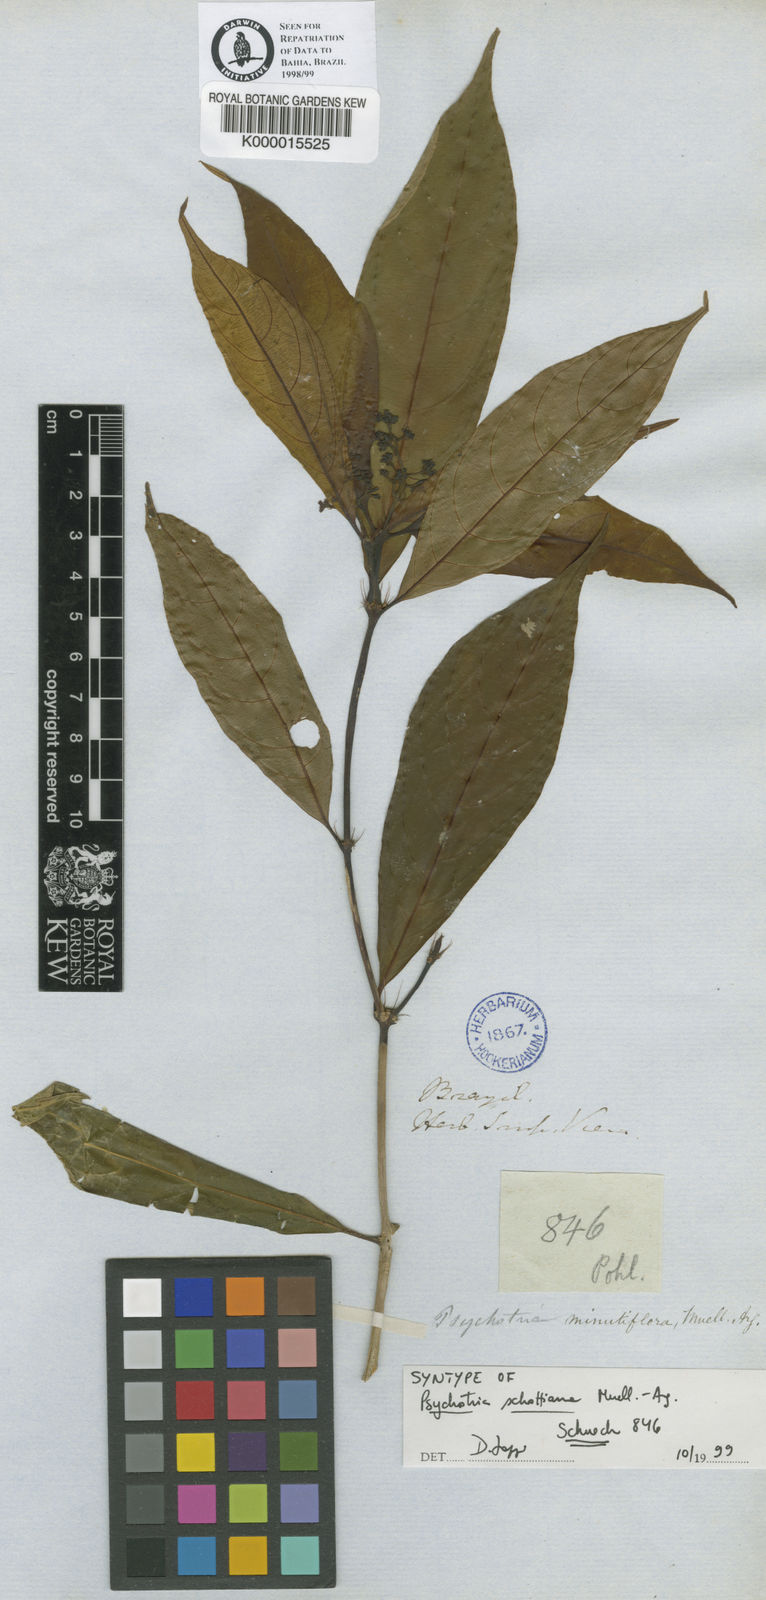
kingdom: Plantae
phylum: Tracheophyta
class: Magnoliopsida
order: Gentianales
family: Rubiaceae
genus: Psychotria
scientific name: Psychotria
